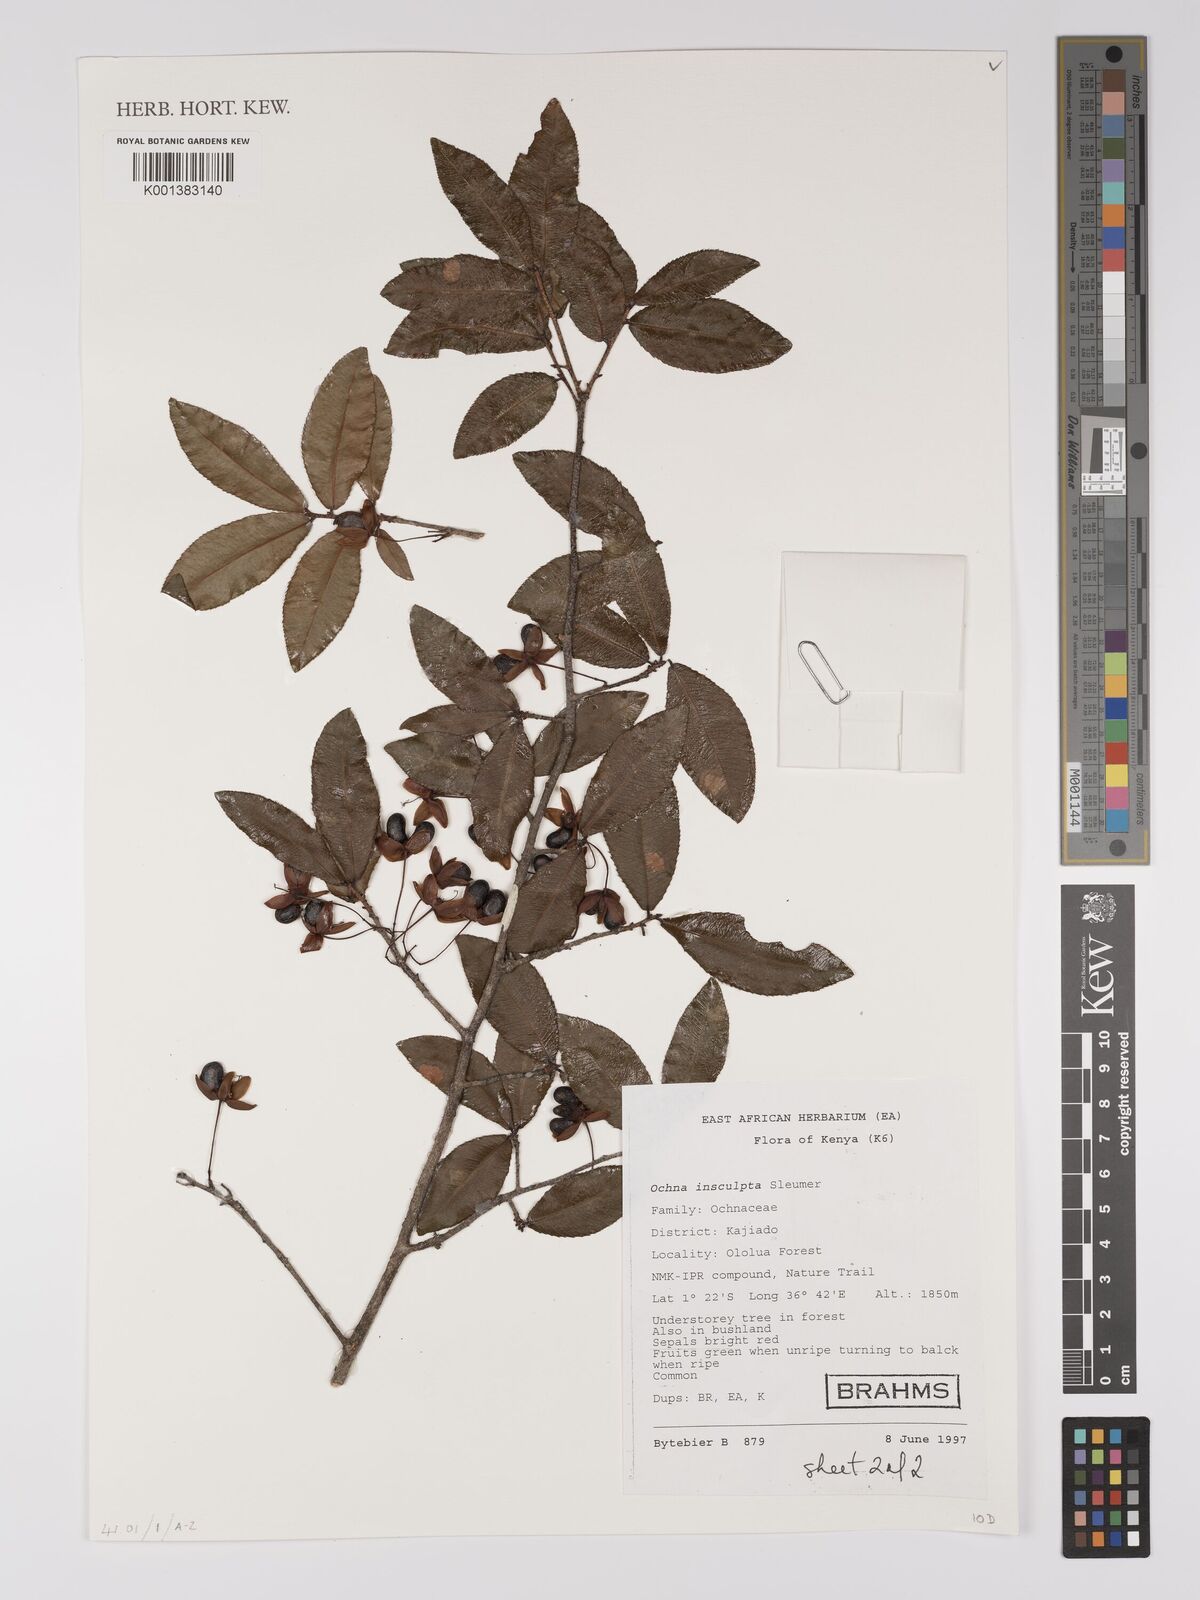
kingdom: Plantae
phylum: Tracheophyta
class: Magnoliopsida
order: Malpighiales
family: Ochnaceae
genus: Ochna
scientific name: Ochna insculpta
